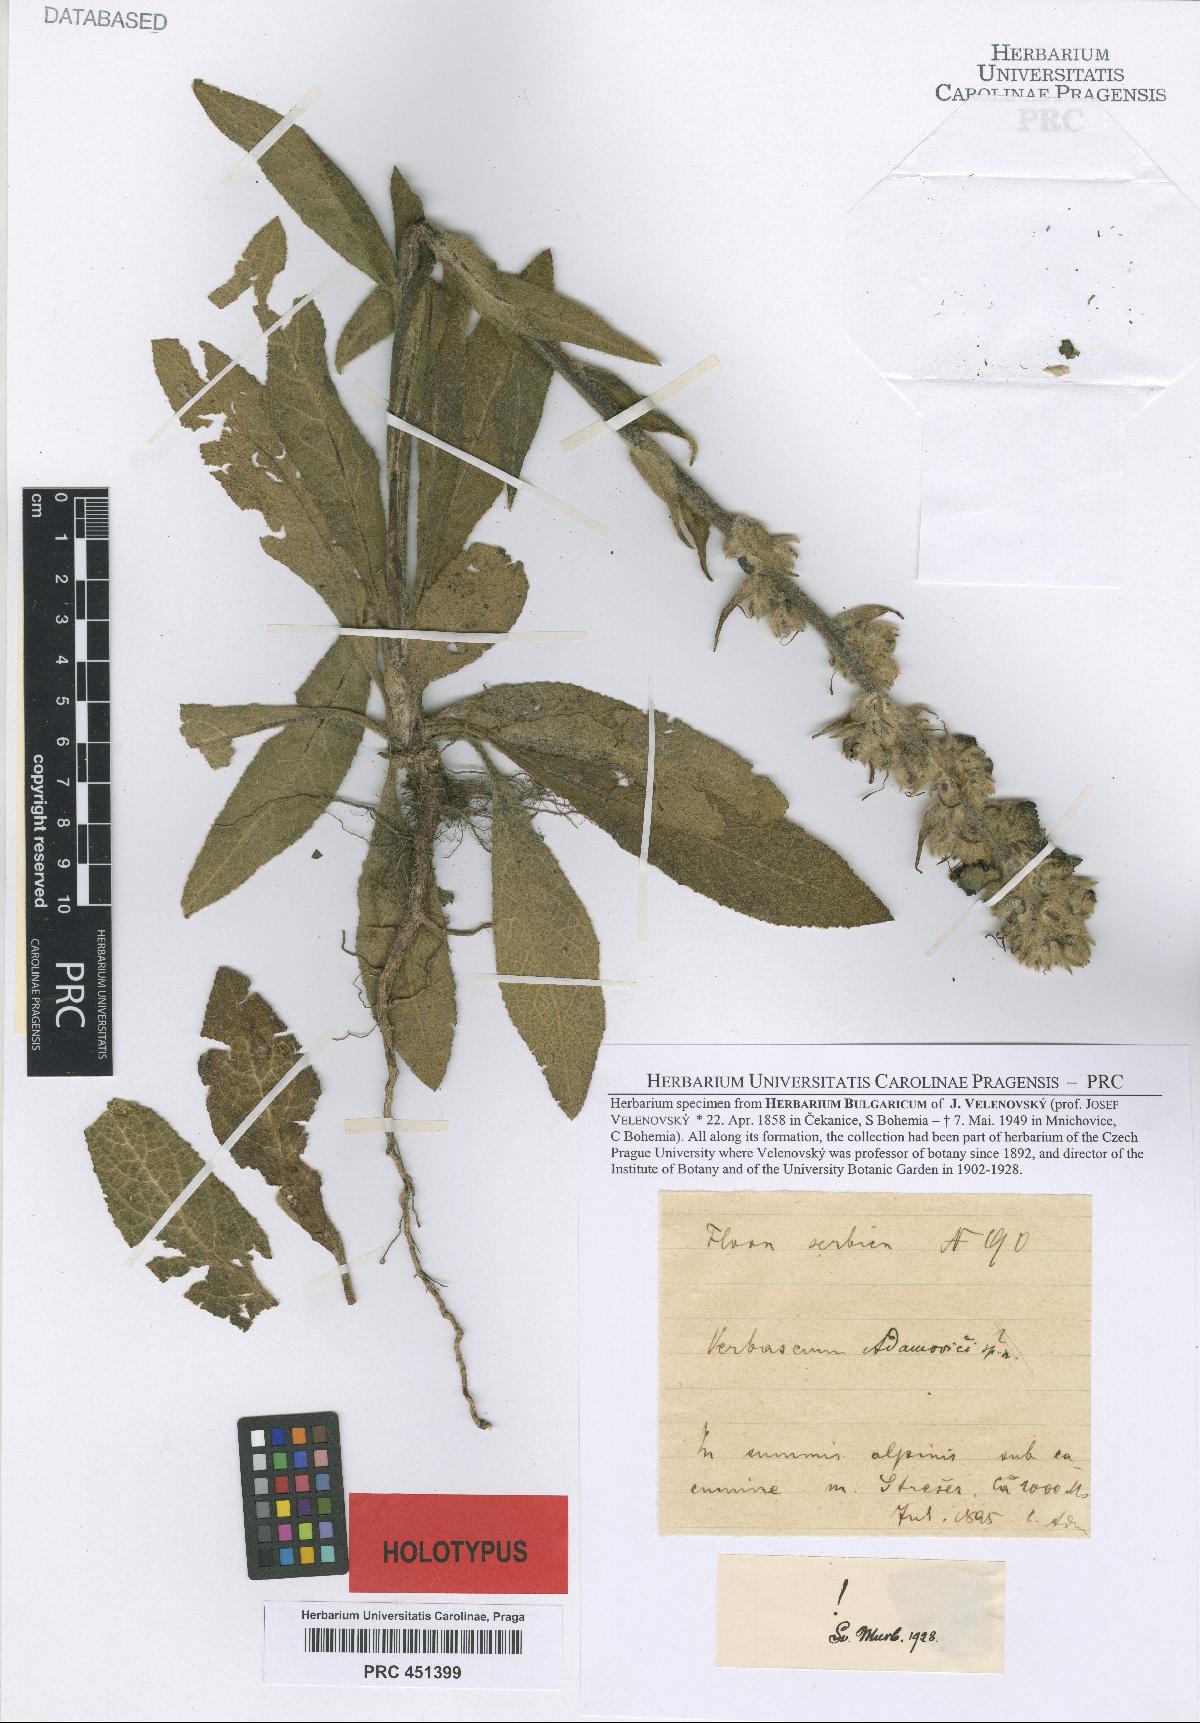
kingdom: Plantae
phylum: Tracheophyta
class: Magnoliopsida
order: Lamiales
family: Scrophulariaceae
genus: Verbascum
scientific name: Verbascum adamovicii
